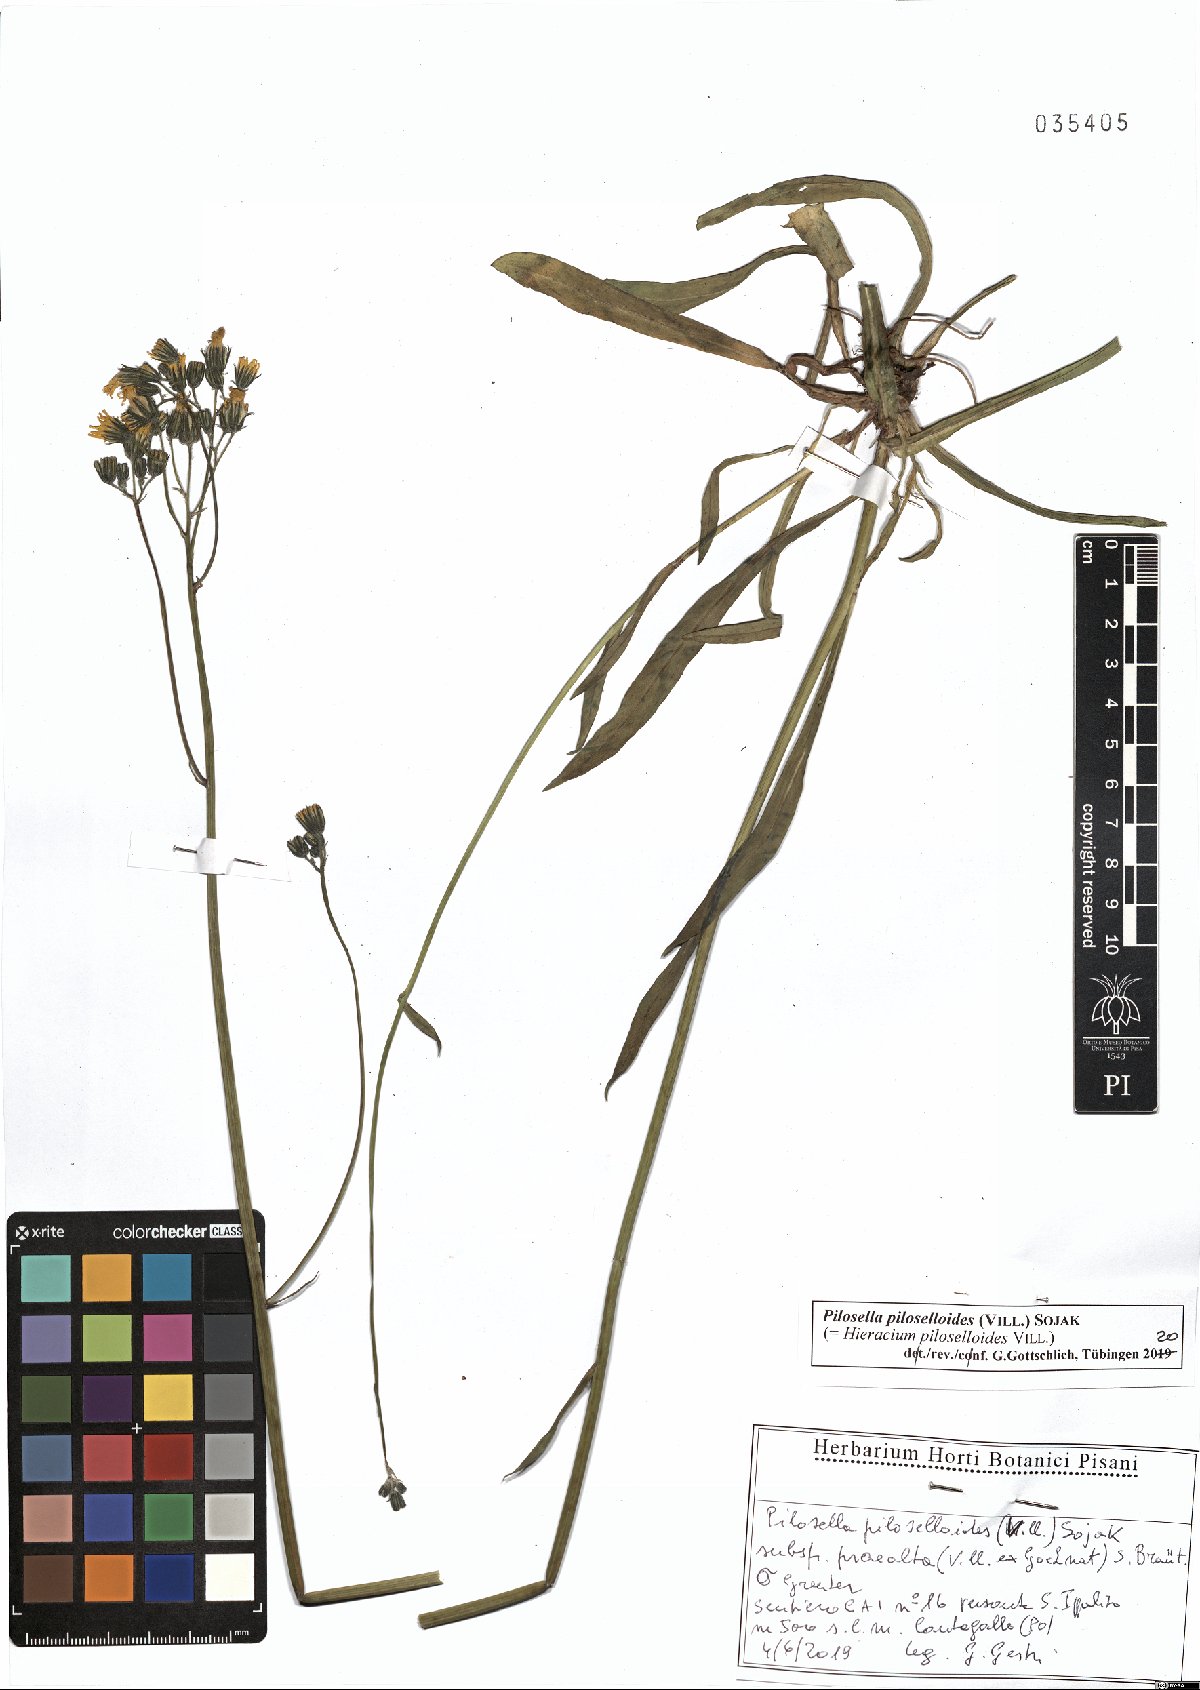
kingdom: Plantae
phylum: Tracheophyta
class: Magnoliopsida
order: Asterales
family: Asteraceae
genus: Pilosella
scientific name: Pilosella piloselloides
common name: Glaucous king-devil
